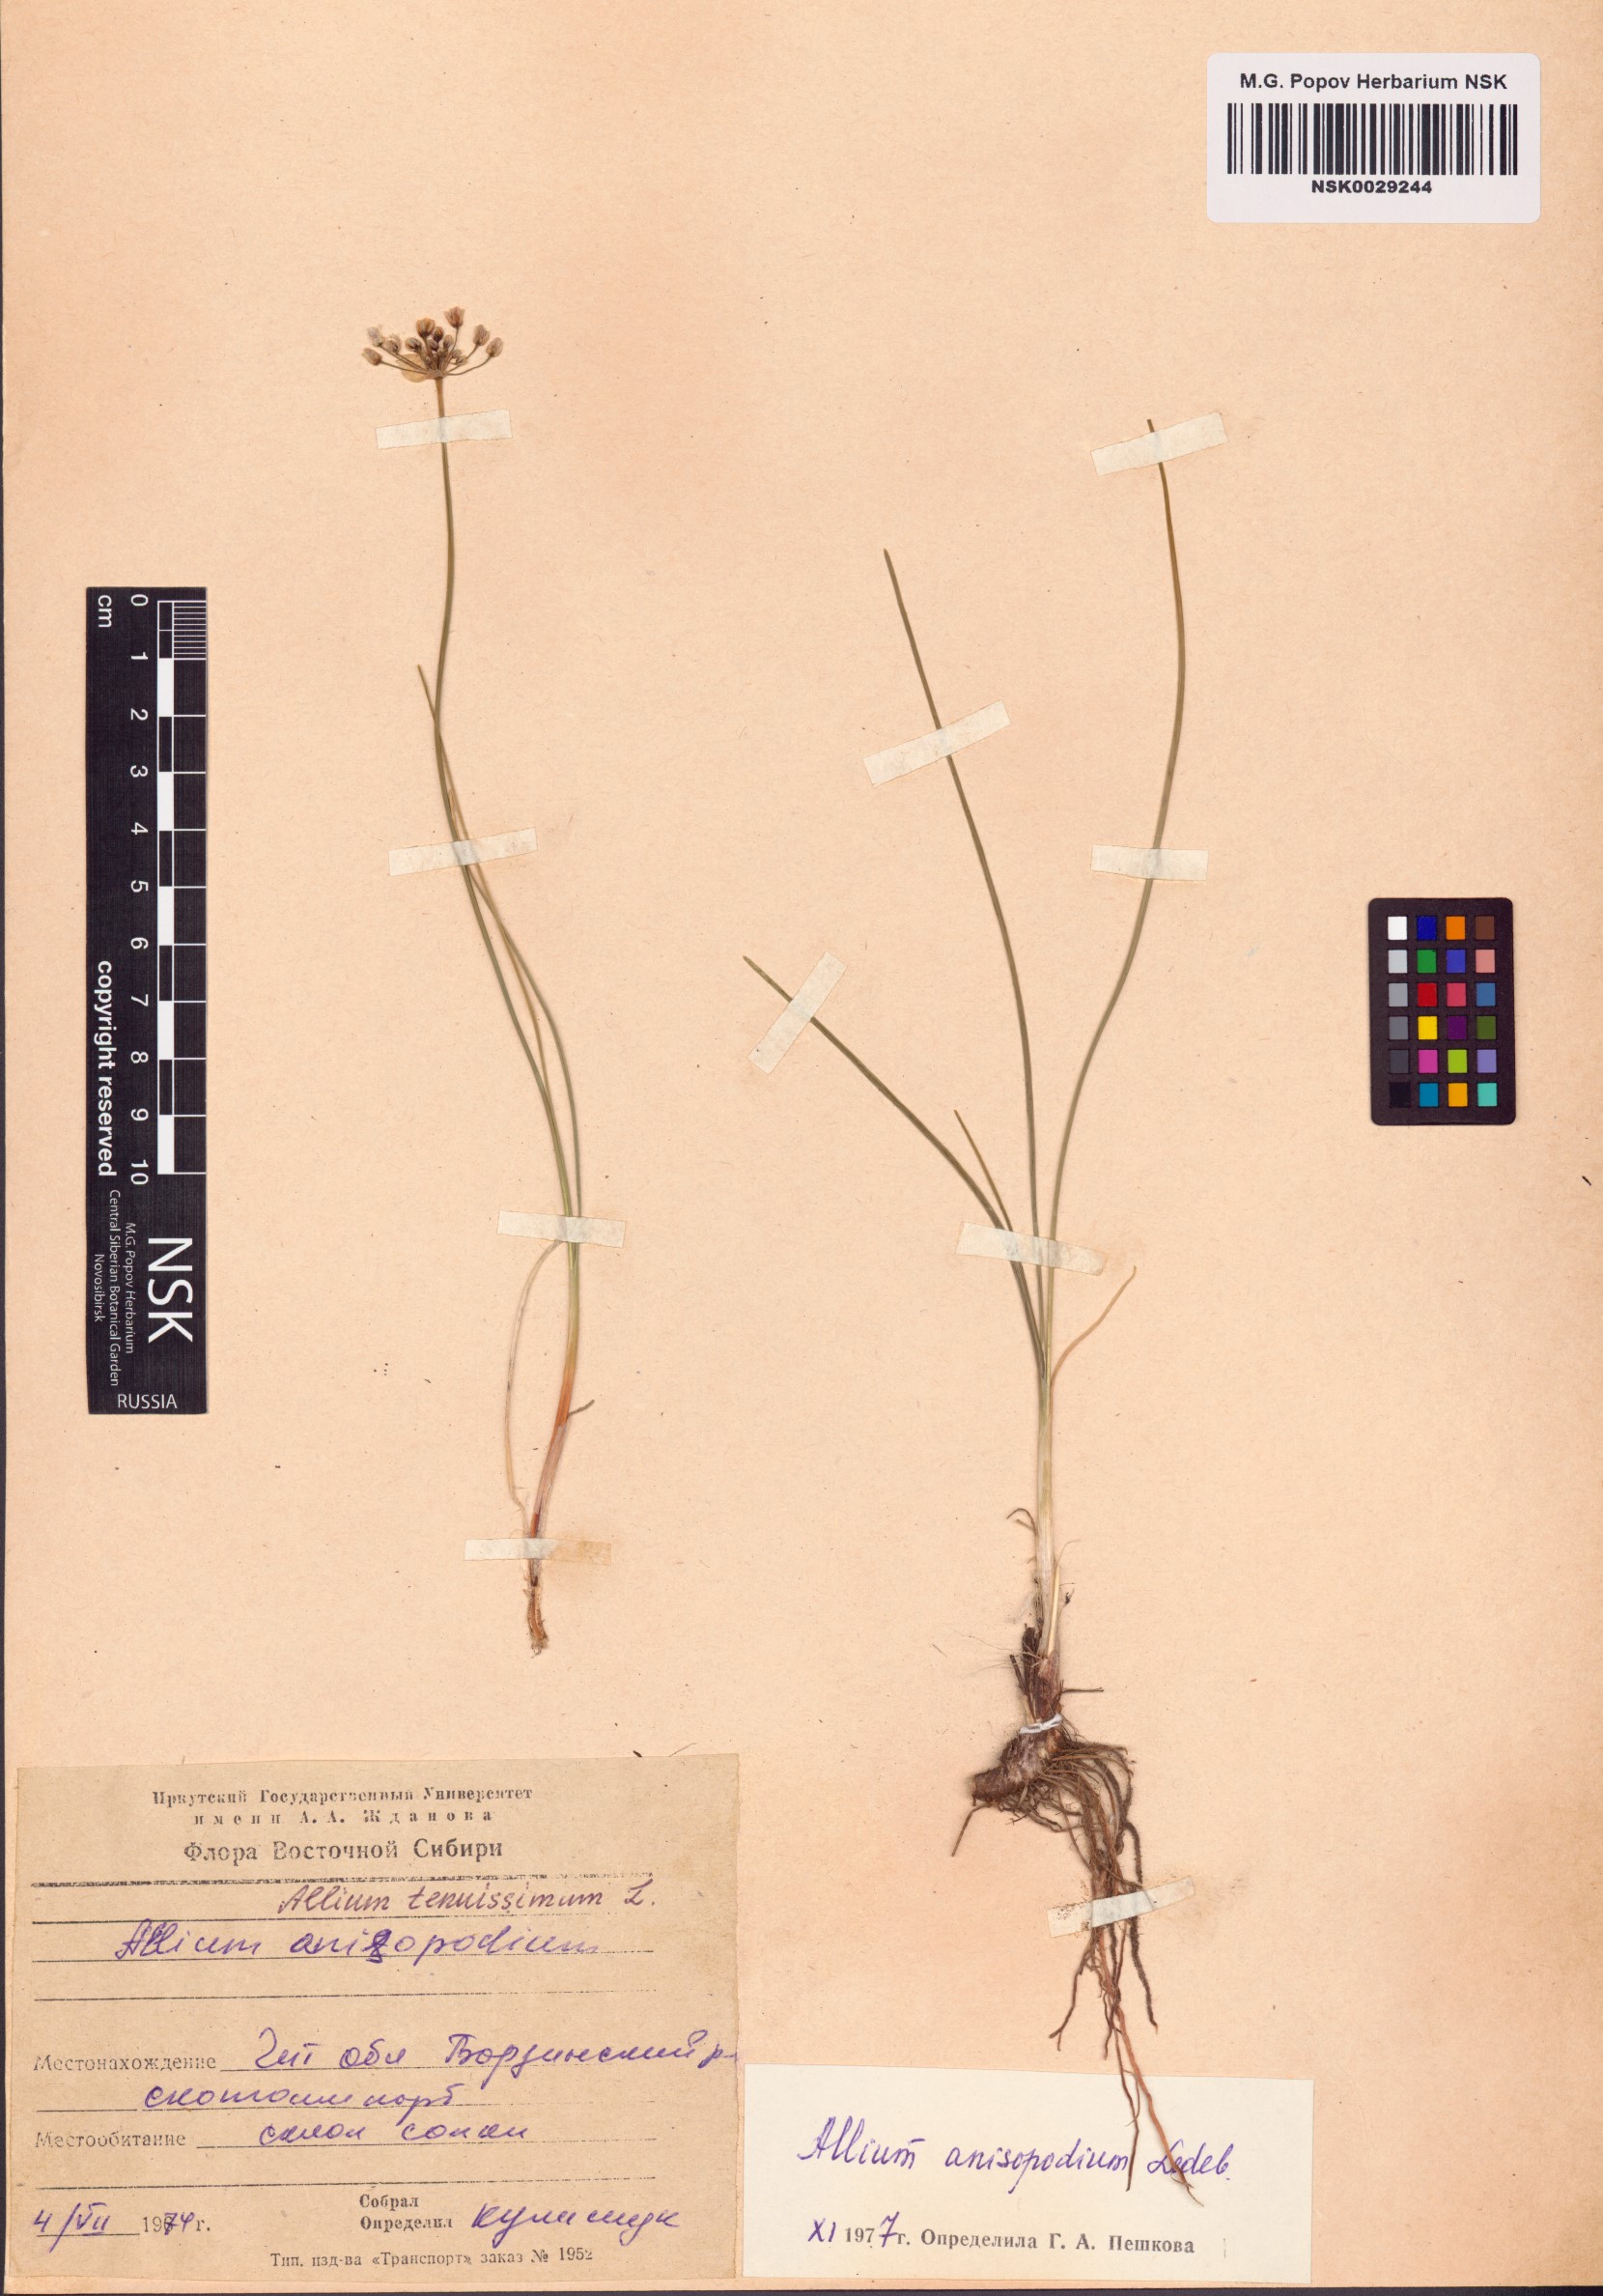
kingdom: Plantae
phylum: Tracheophyta
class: Liliopsida
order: Asparagales
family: Amaryllidaceae
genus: Allium
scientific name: Allium anisopodium
